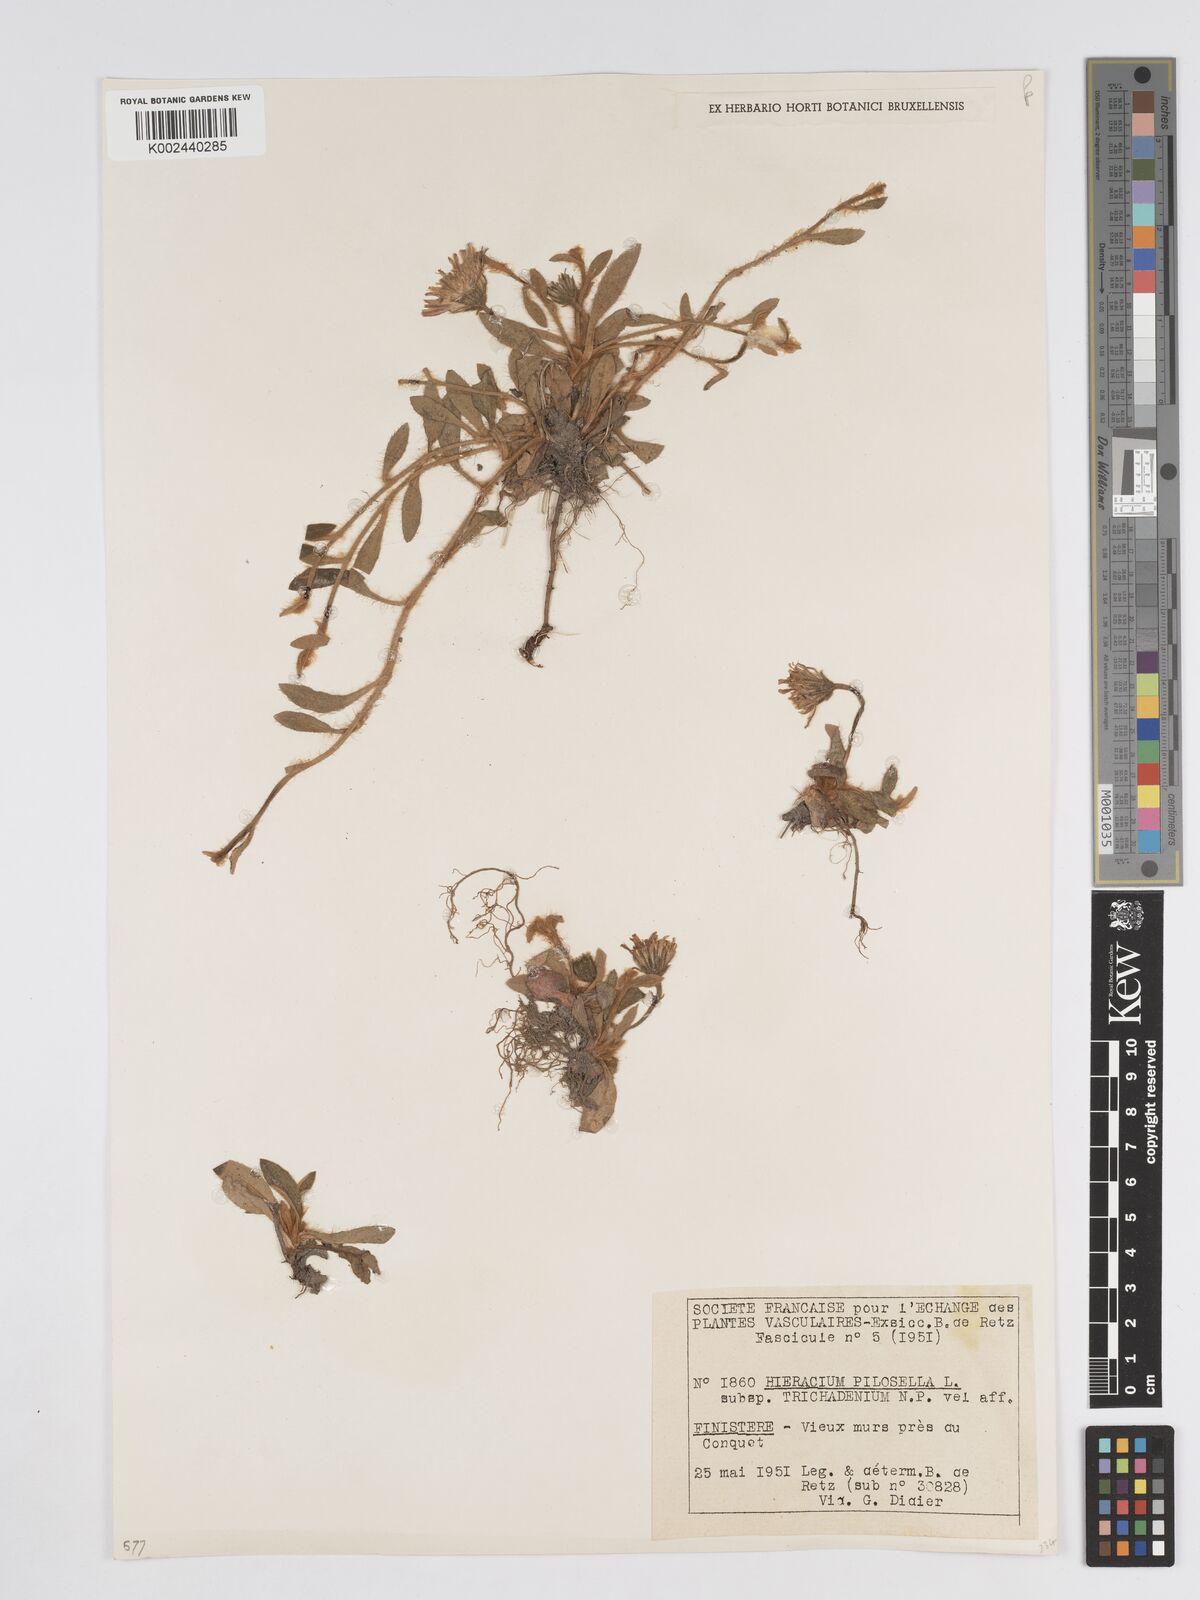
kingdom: Plantae
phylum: Tracheophyta
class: Magnoliopsida
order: Asterales
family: Asteraceae
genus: Pilosella
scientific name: Pilosella officinarum
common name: Mouse-ear hawkweed
